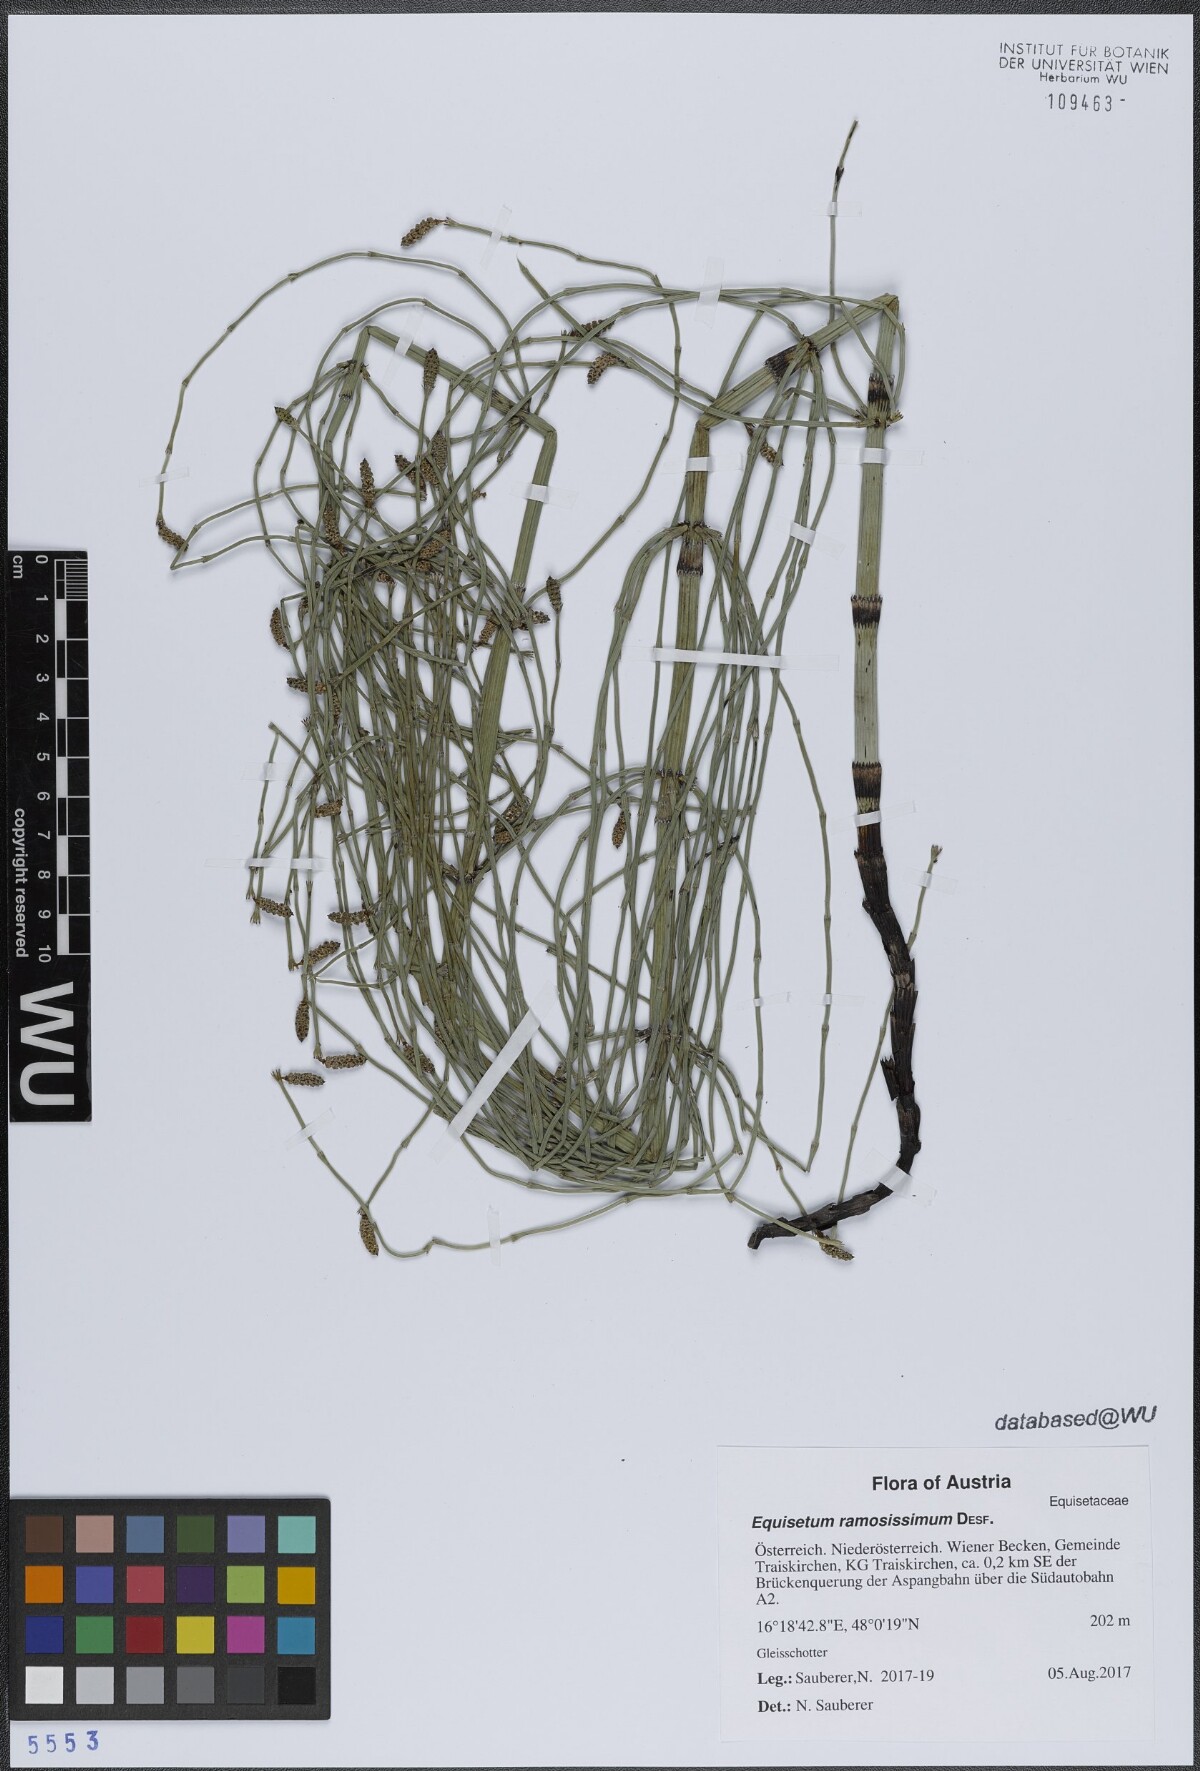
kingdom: Plantae
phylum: Tracheophyta
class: Polypodiopsida
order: Equisetales
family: Equisetaceae
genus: Equisetum
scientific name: Equisetum ramosissimum
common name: Branched horsetail
